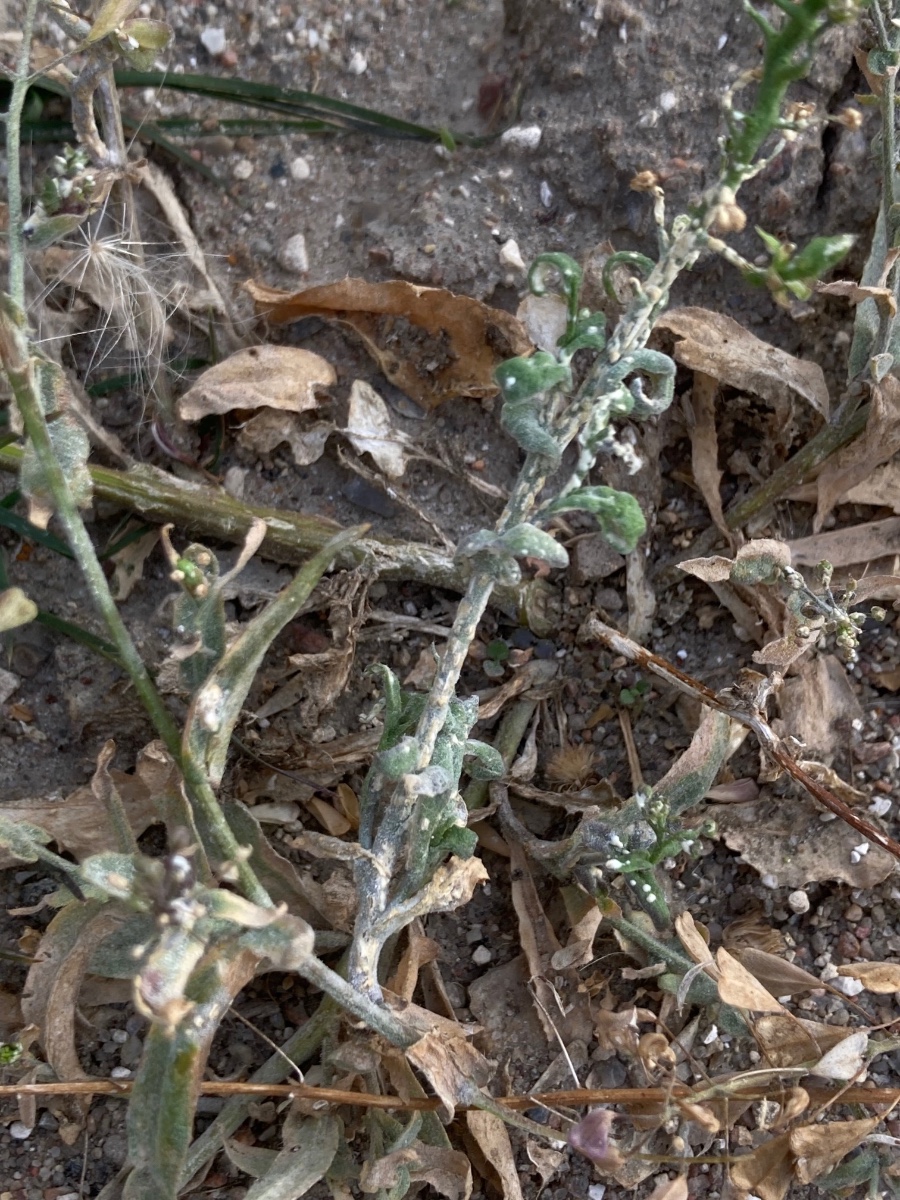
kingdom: Chromista
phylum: Oomycota
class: Peronosporea
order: Albuginales
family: Albuginaceae
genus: Albugo
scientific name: Albugo candida
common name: Crucifer white blister
